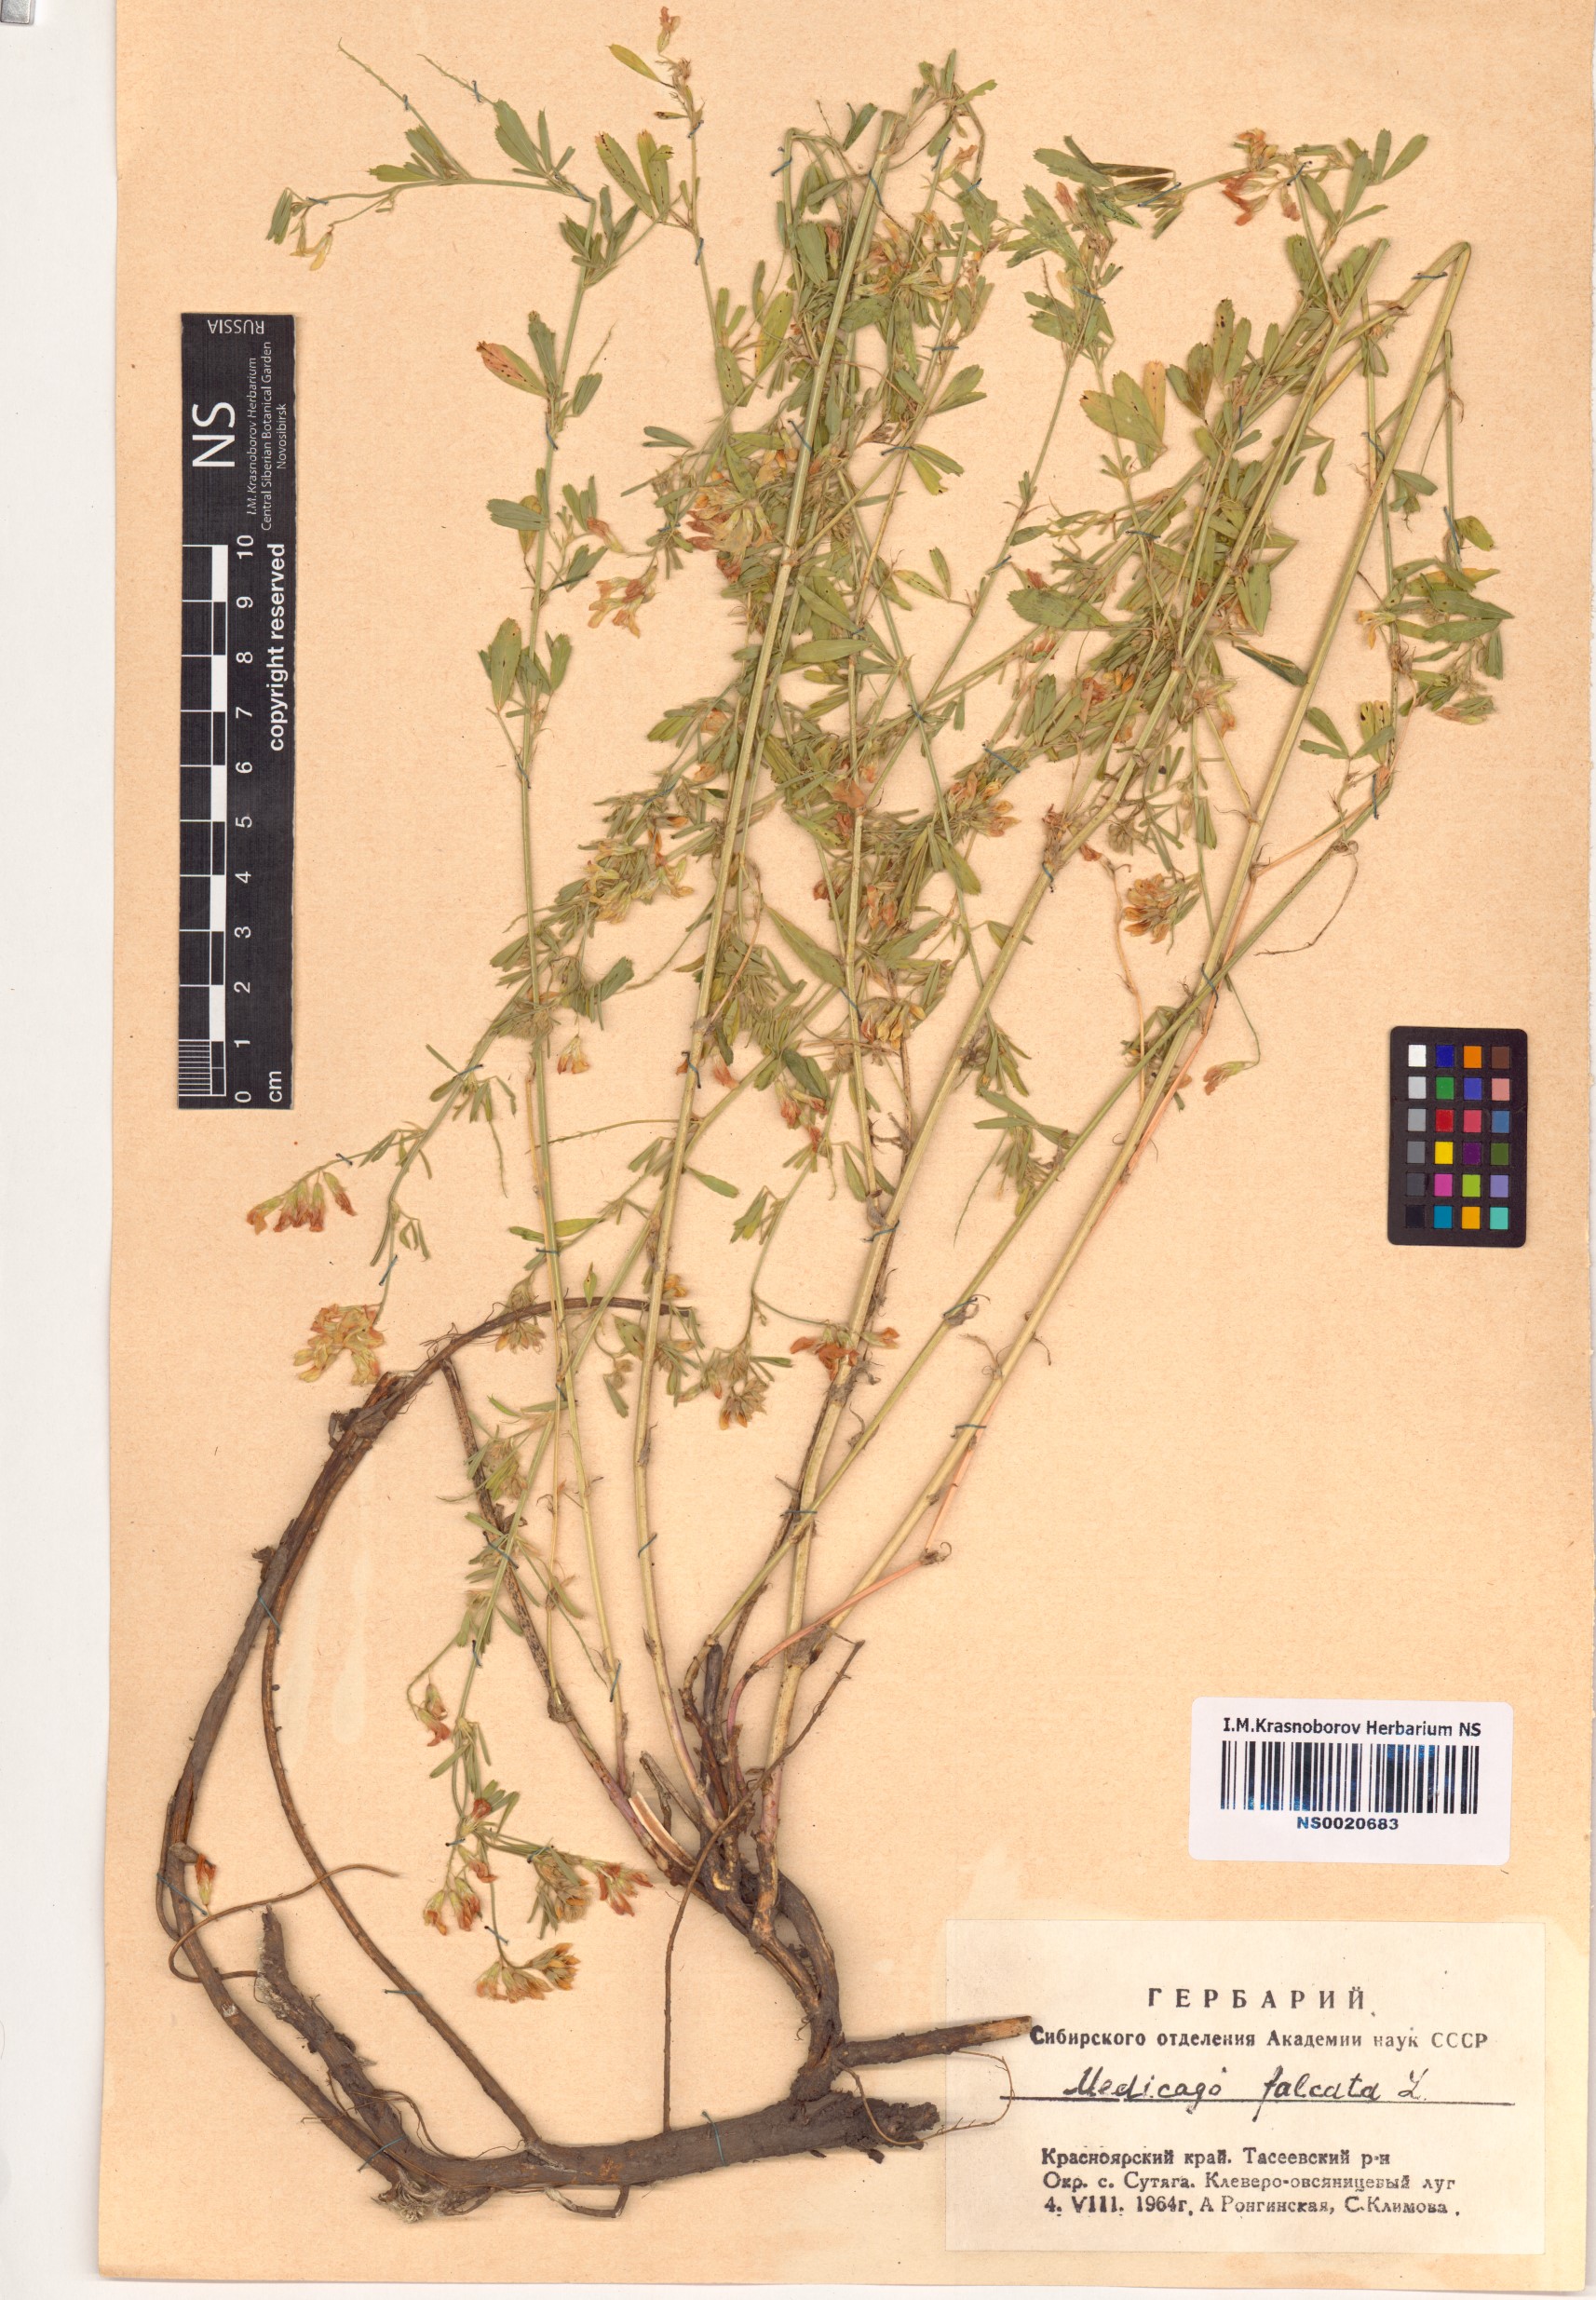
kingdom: Plantae
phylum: Tracheophyta
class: Magnoliopsida
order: Fabales
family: Fabaceae
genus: Medicago
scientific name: Medicago falcata
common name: Sickle medick
